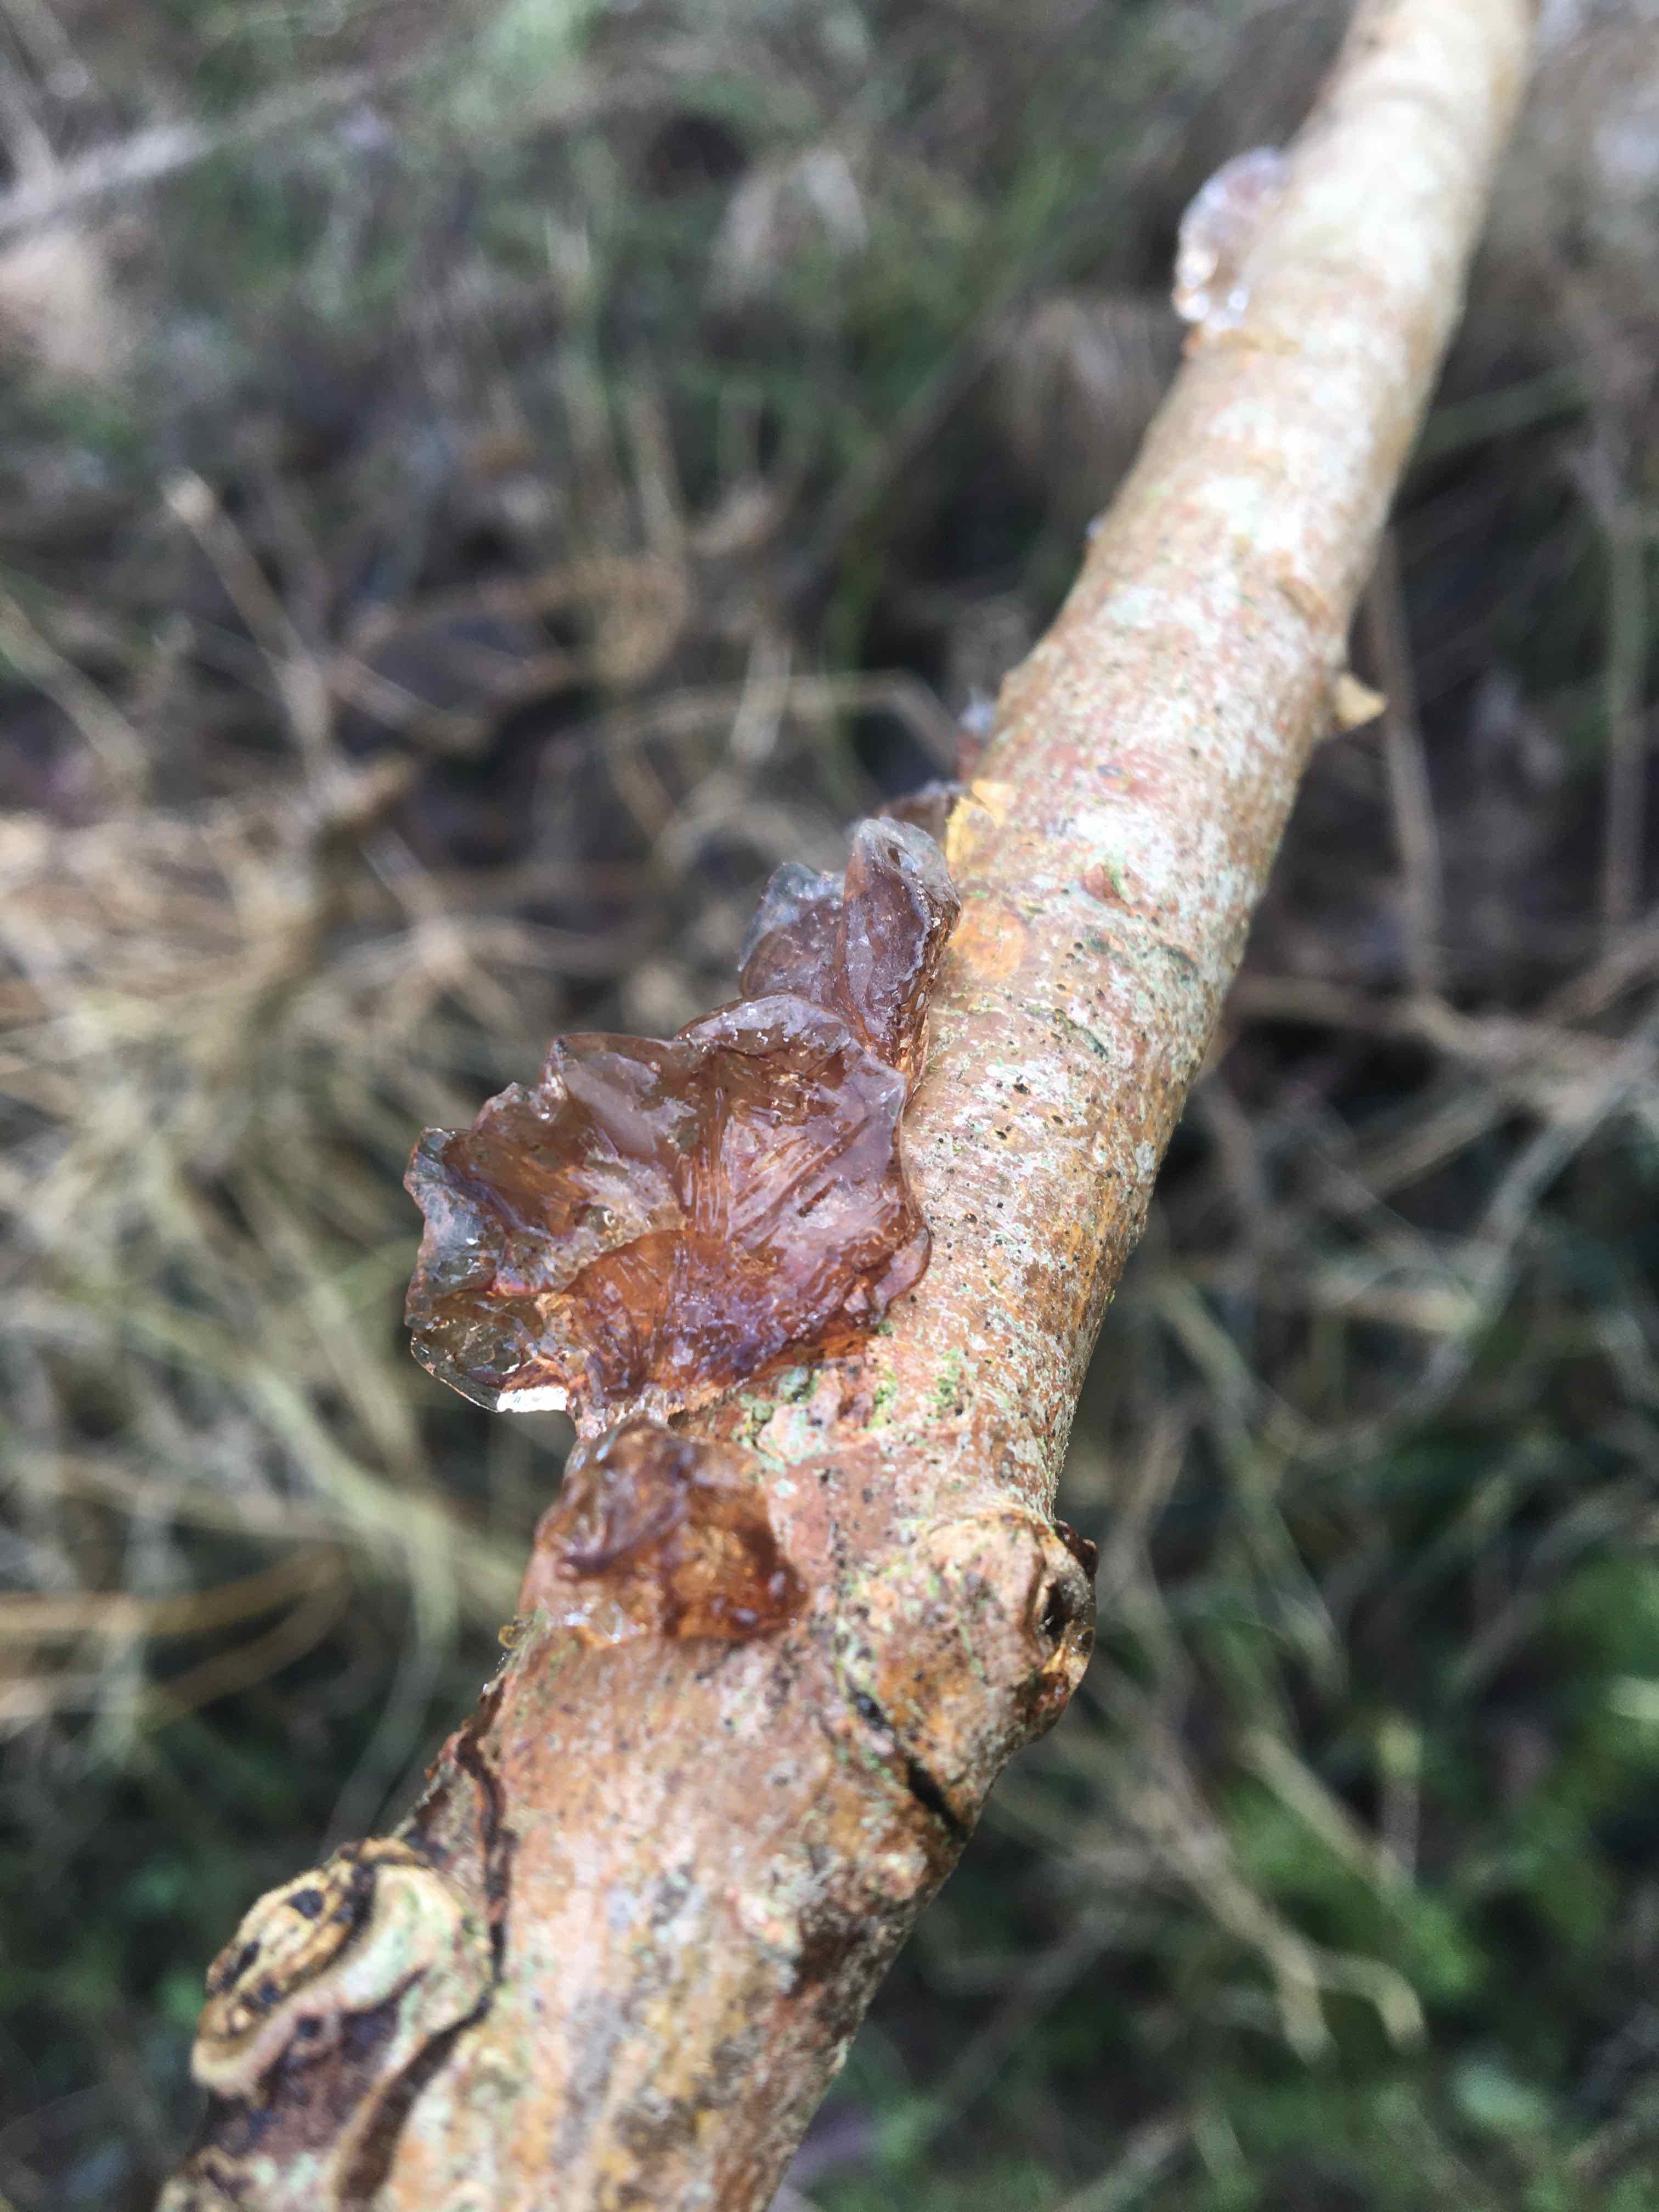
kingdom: Fungi
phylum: Basidiomycota
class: Agaricomycetes
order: Auriculariales
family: Auriculariaceae
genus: Exidia
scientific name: Exidia recisa
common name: pile-bævretop
